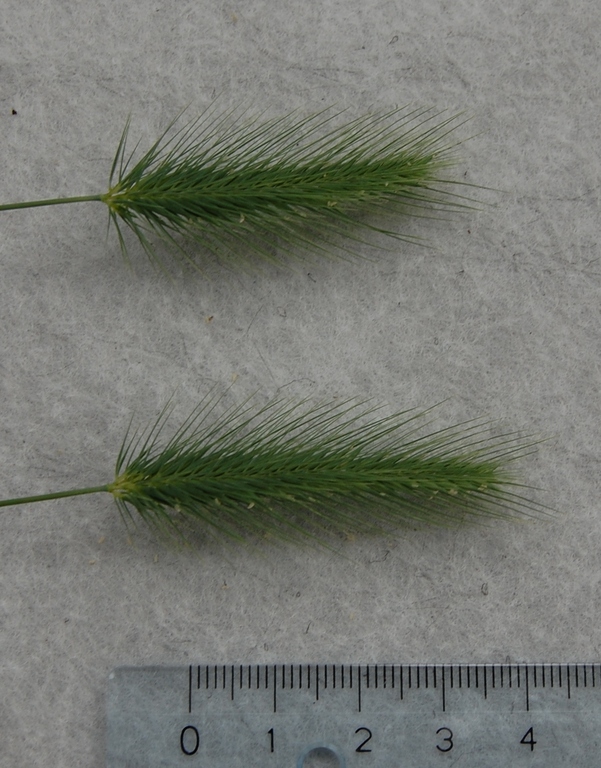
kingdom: Plantae
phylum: Tracheophyta
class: Liliopsida
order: Poales
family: Poaceae
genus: Hordeum
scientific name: Hordeum marinum
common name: Sea barley
